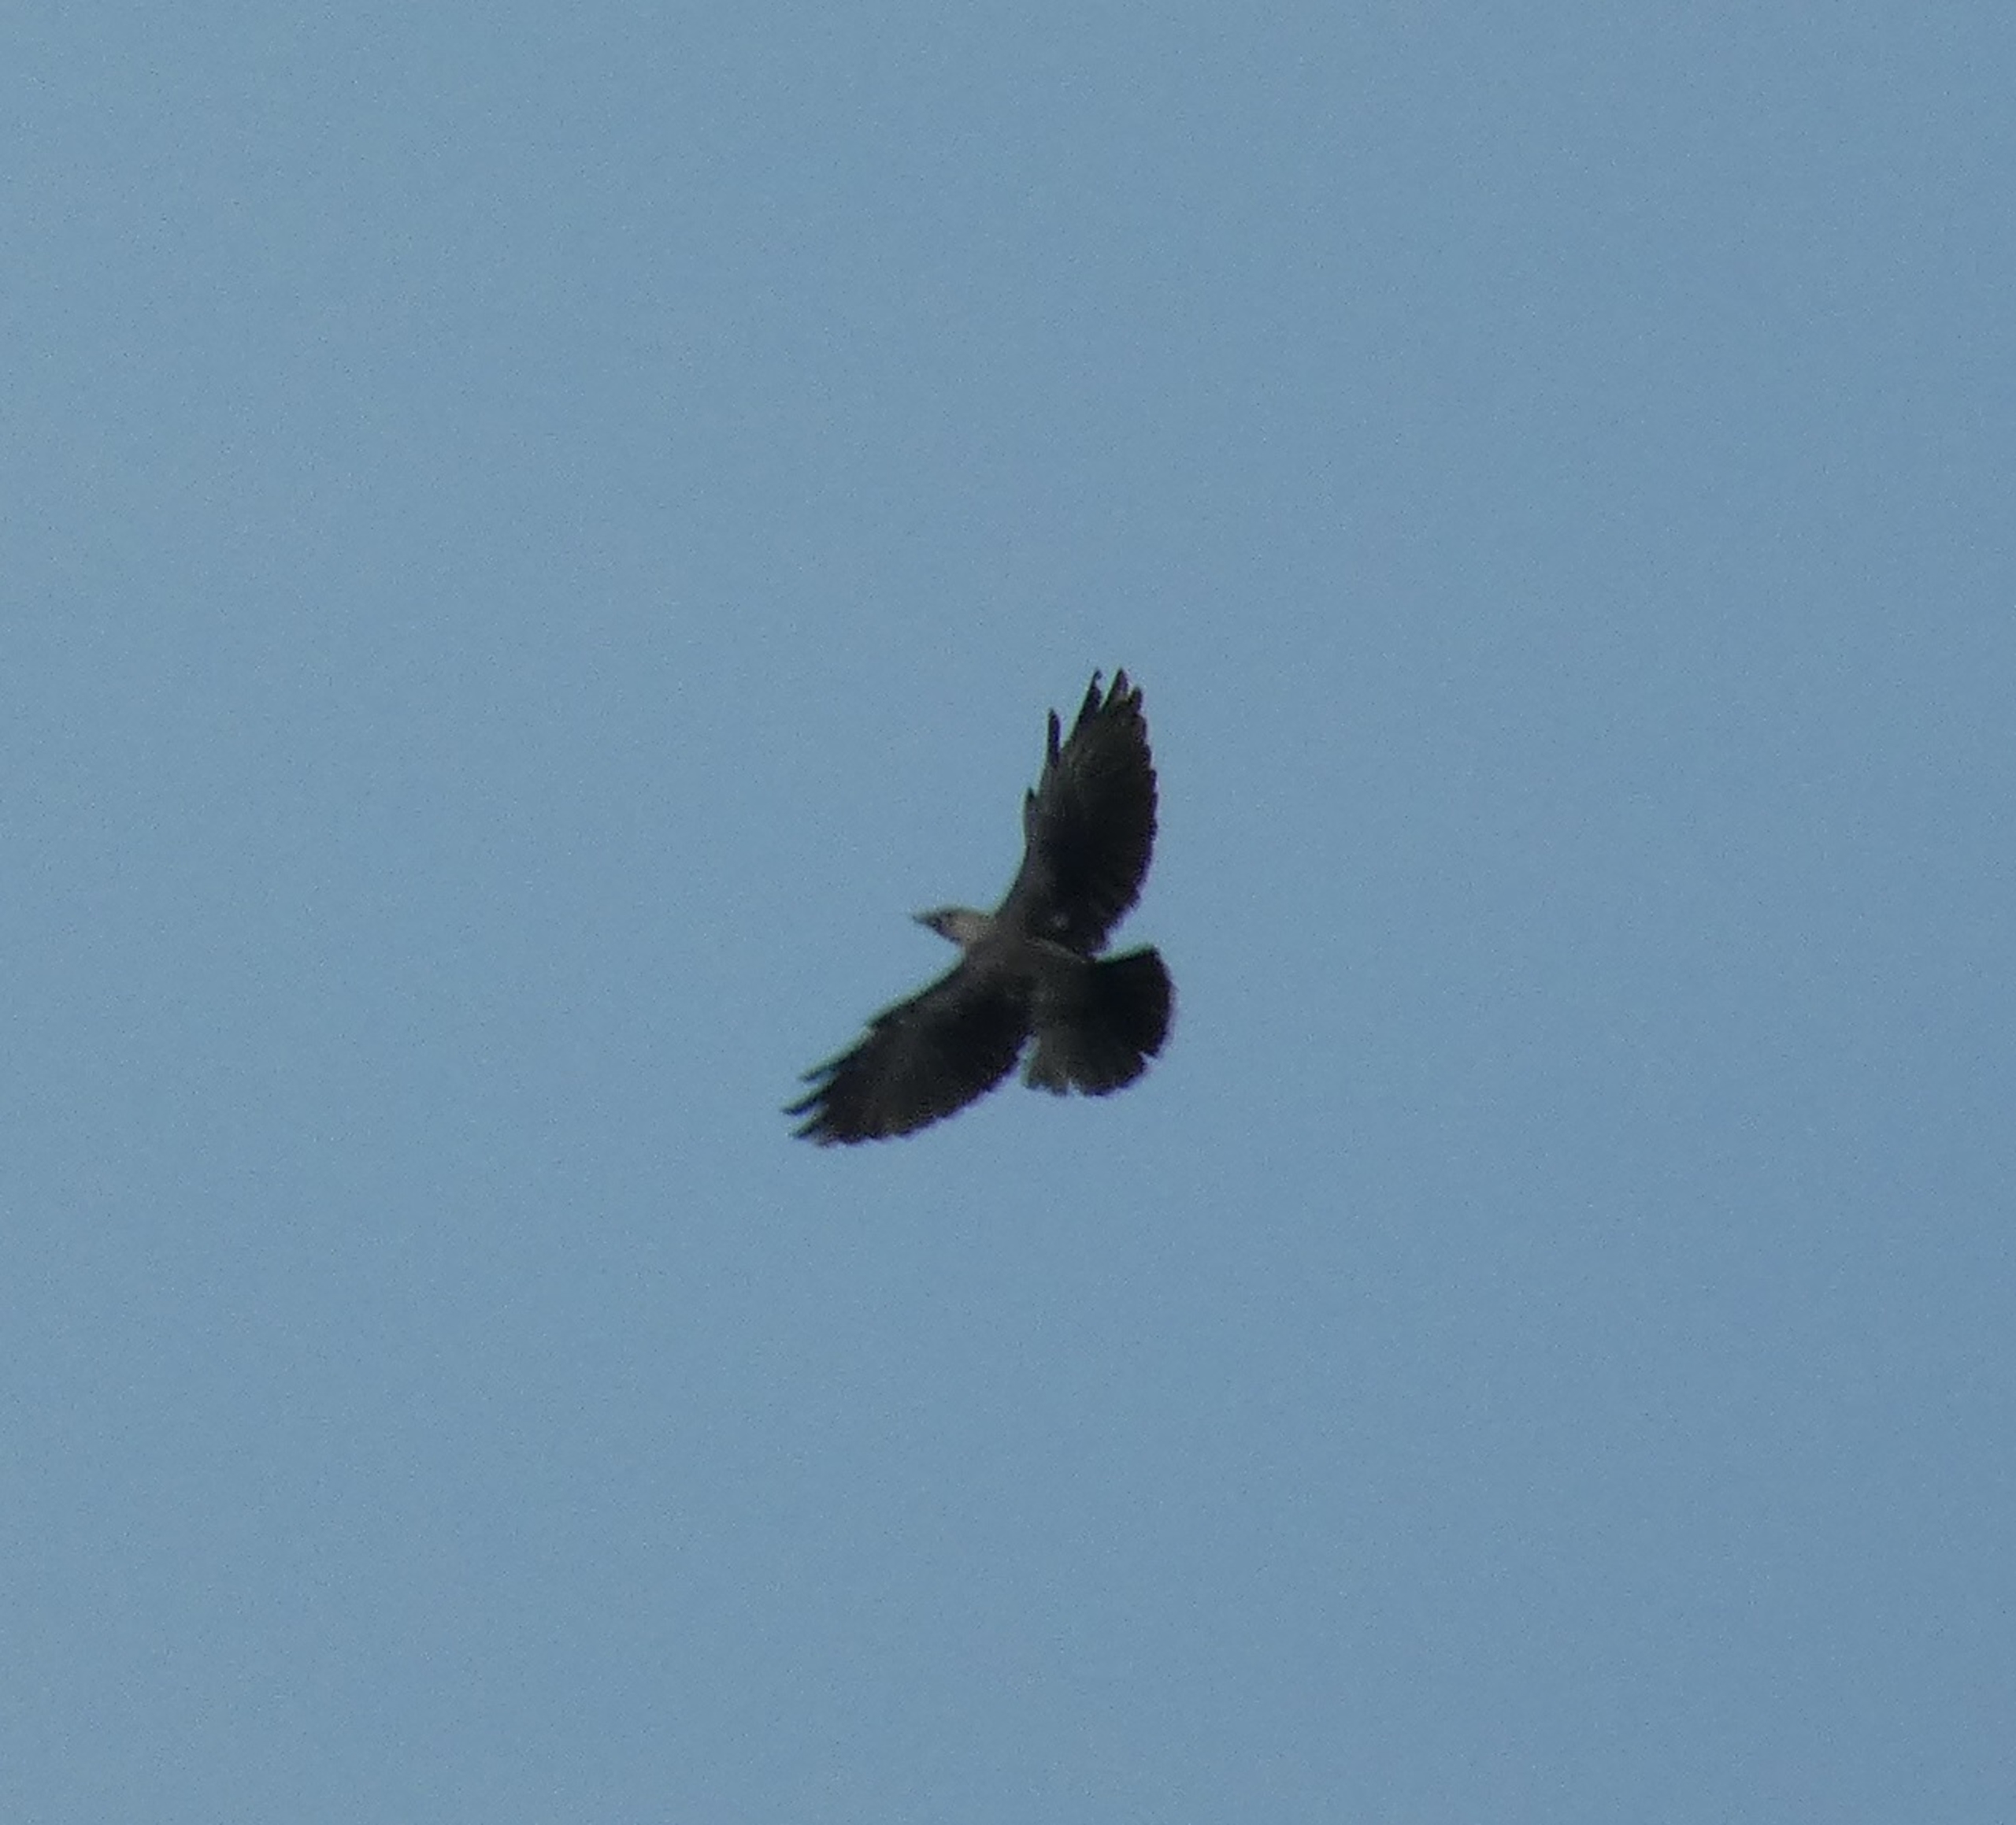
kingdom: Animalia
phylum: Chordata
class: Aves
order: Passeriformes
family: Corvidae
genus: Coloeus
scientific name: Coloeus monedula
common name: Allike
